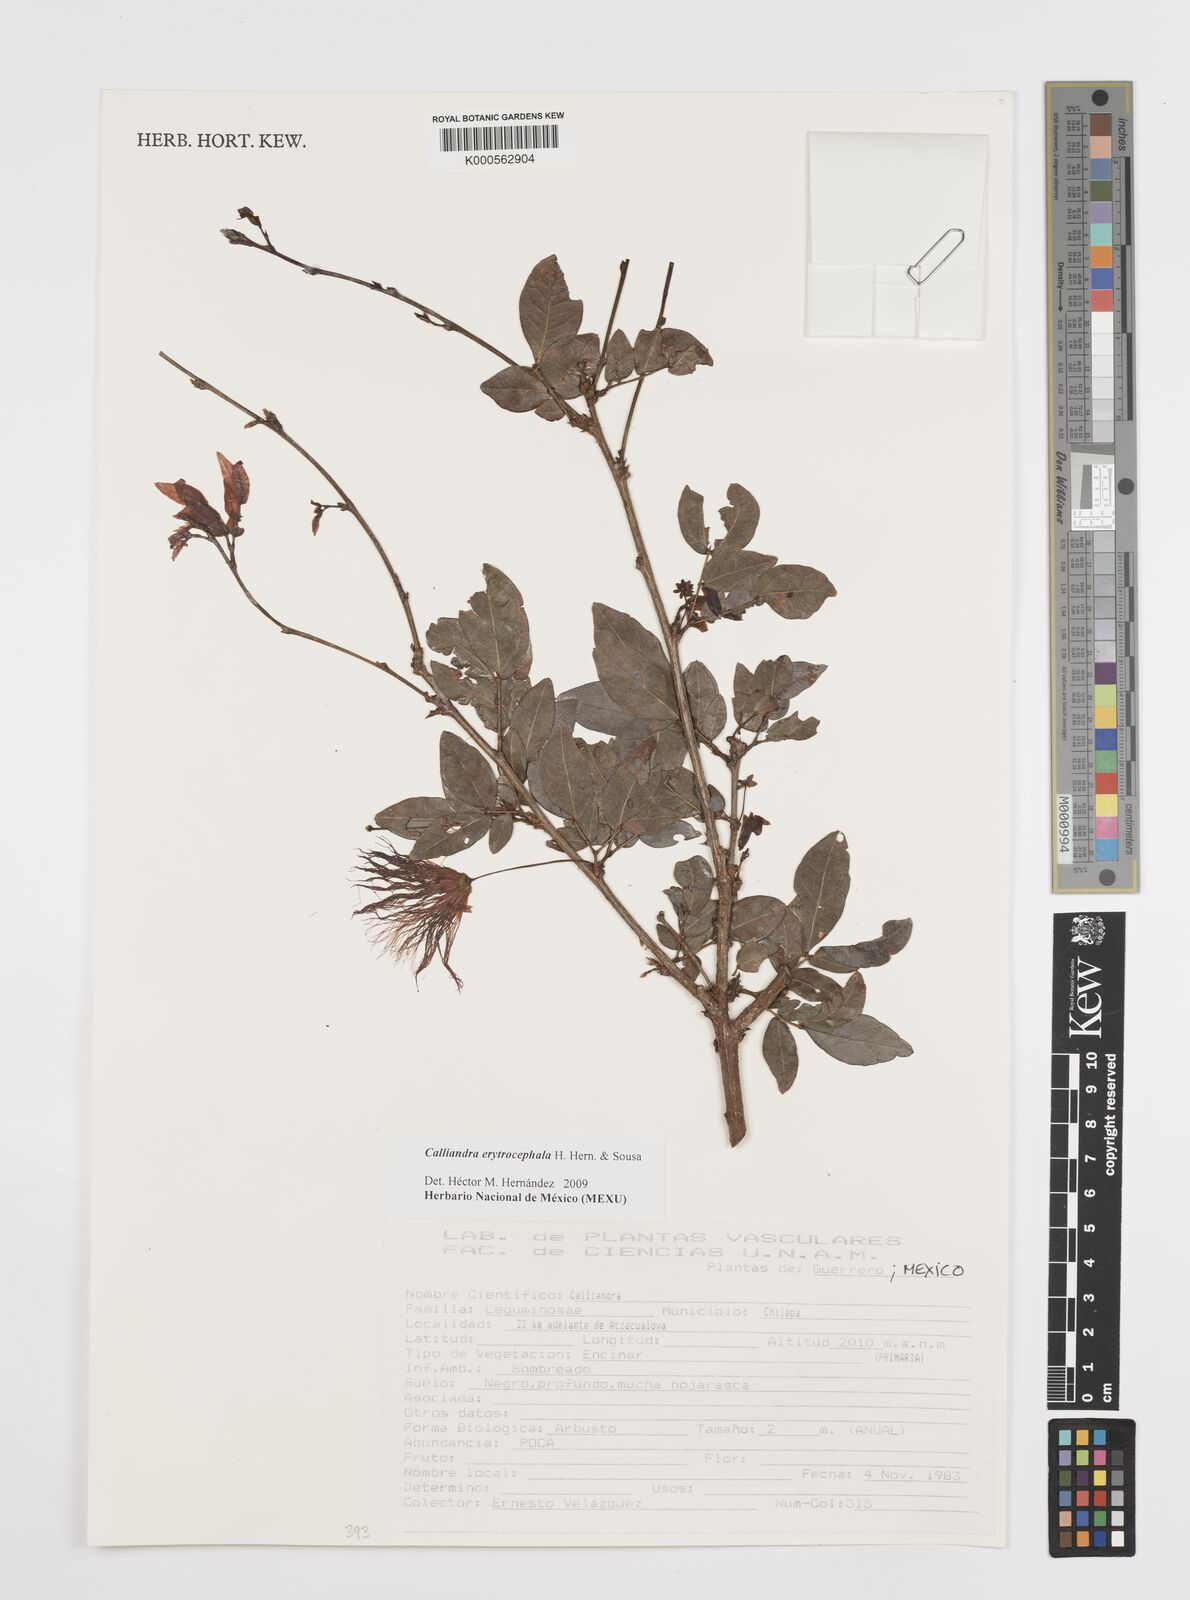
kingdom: Plantae
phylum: Tracheophyta
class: Magnoliopsida
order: Fabales
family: Fabaceae
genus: Calliandra
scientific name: Calliandra
